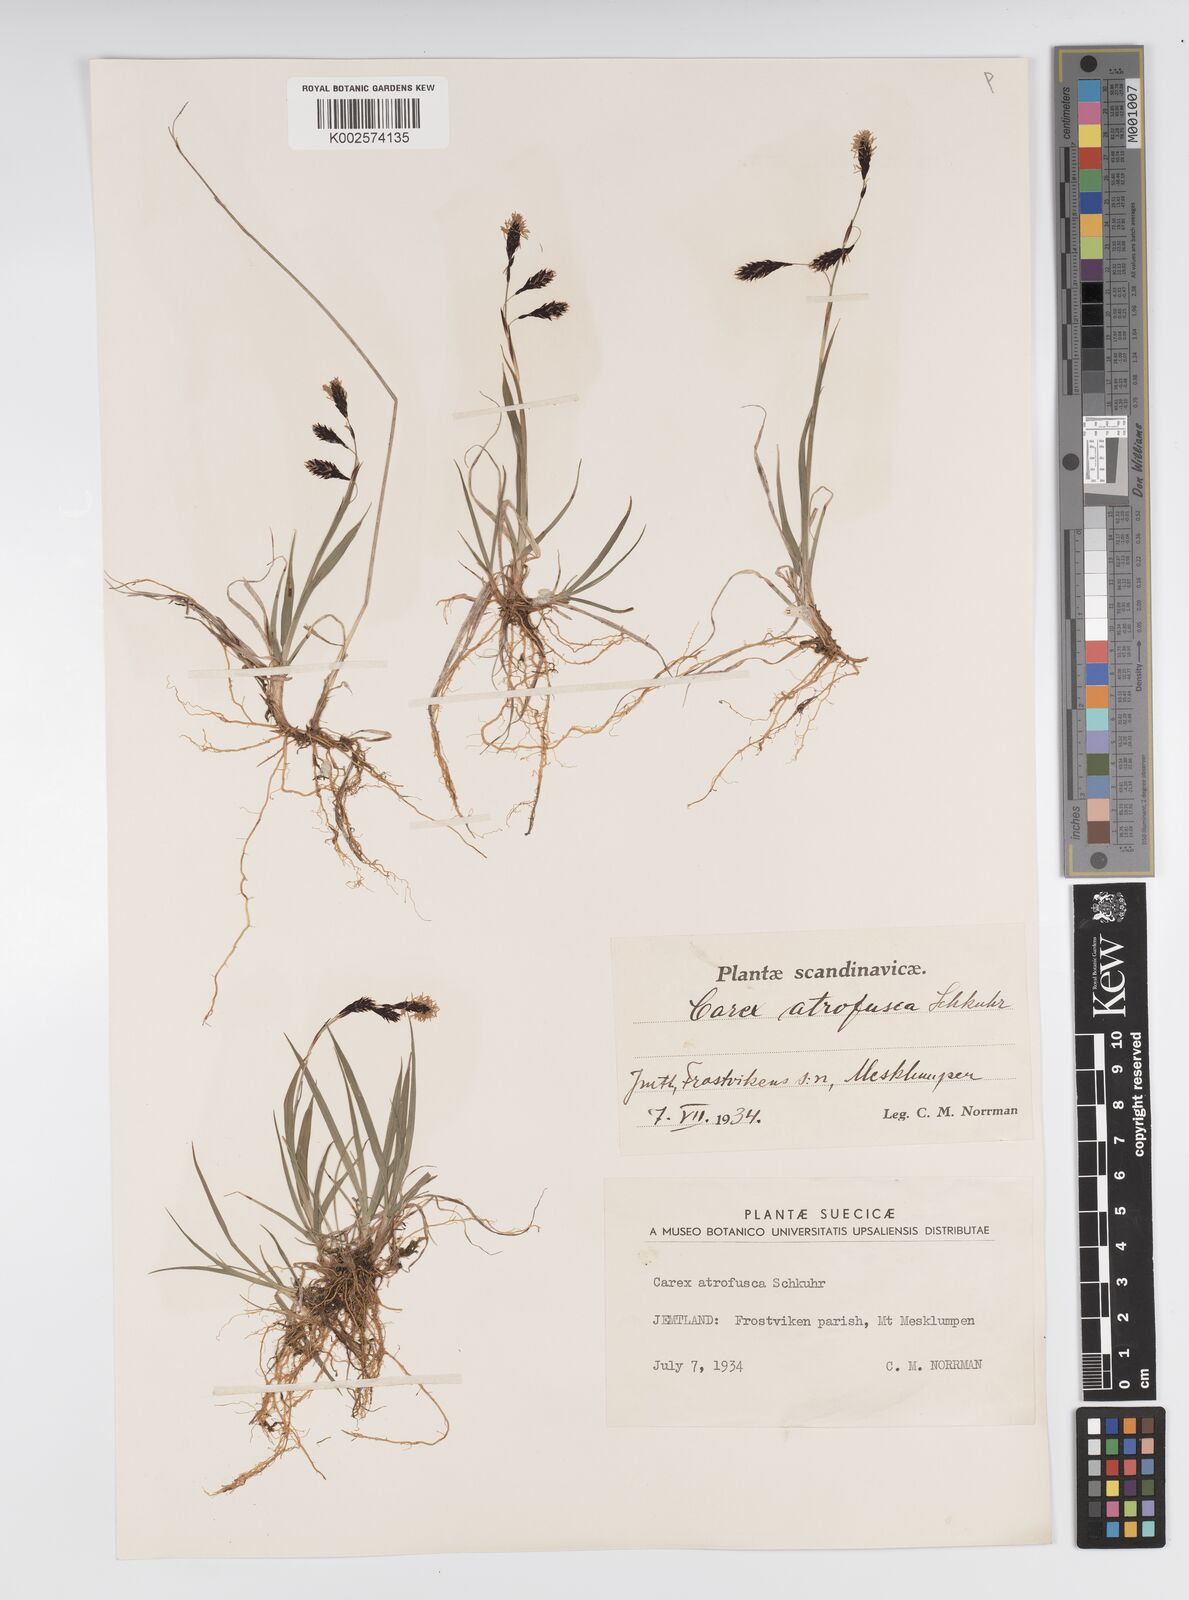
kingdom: Plantae
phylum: Tracheophyta
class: Liliopsida
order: Poales
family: Cyperaceae
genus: Carex
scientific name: Carex atrofusca
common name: Scorched alpine-sedge
